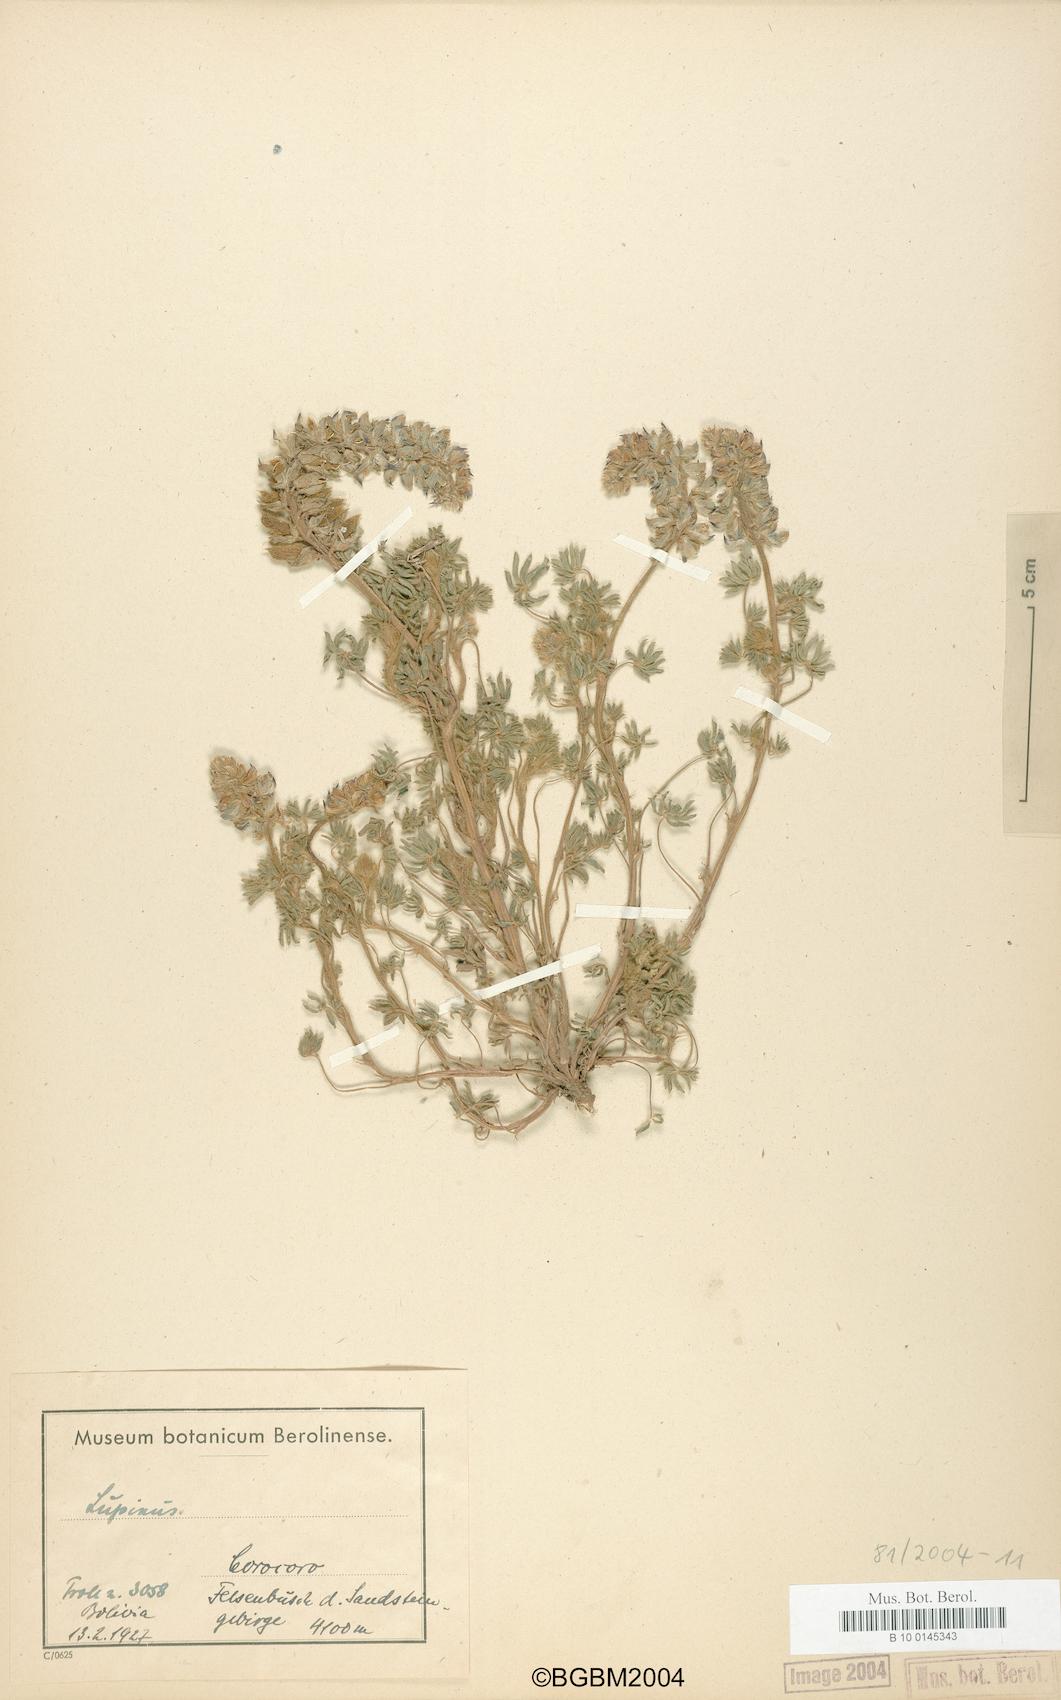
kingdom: Plantae
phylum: Tracheophyta
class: Magnoliopsida
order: Fabales
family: Fabaceae
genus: Lupinus
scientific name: Lupinus
